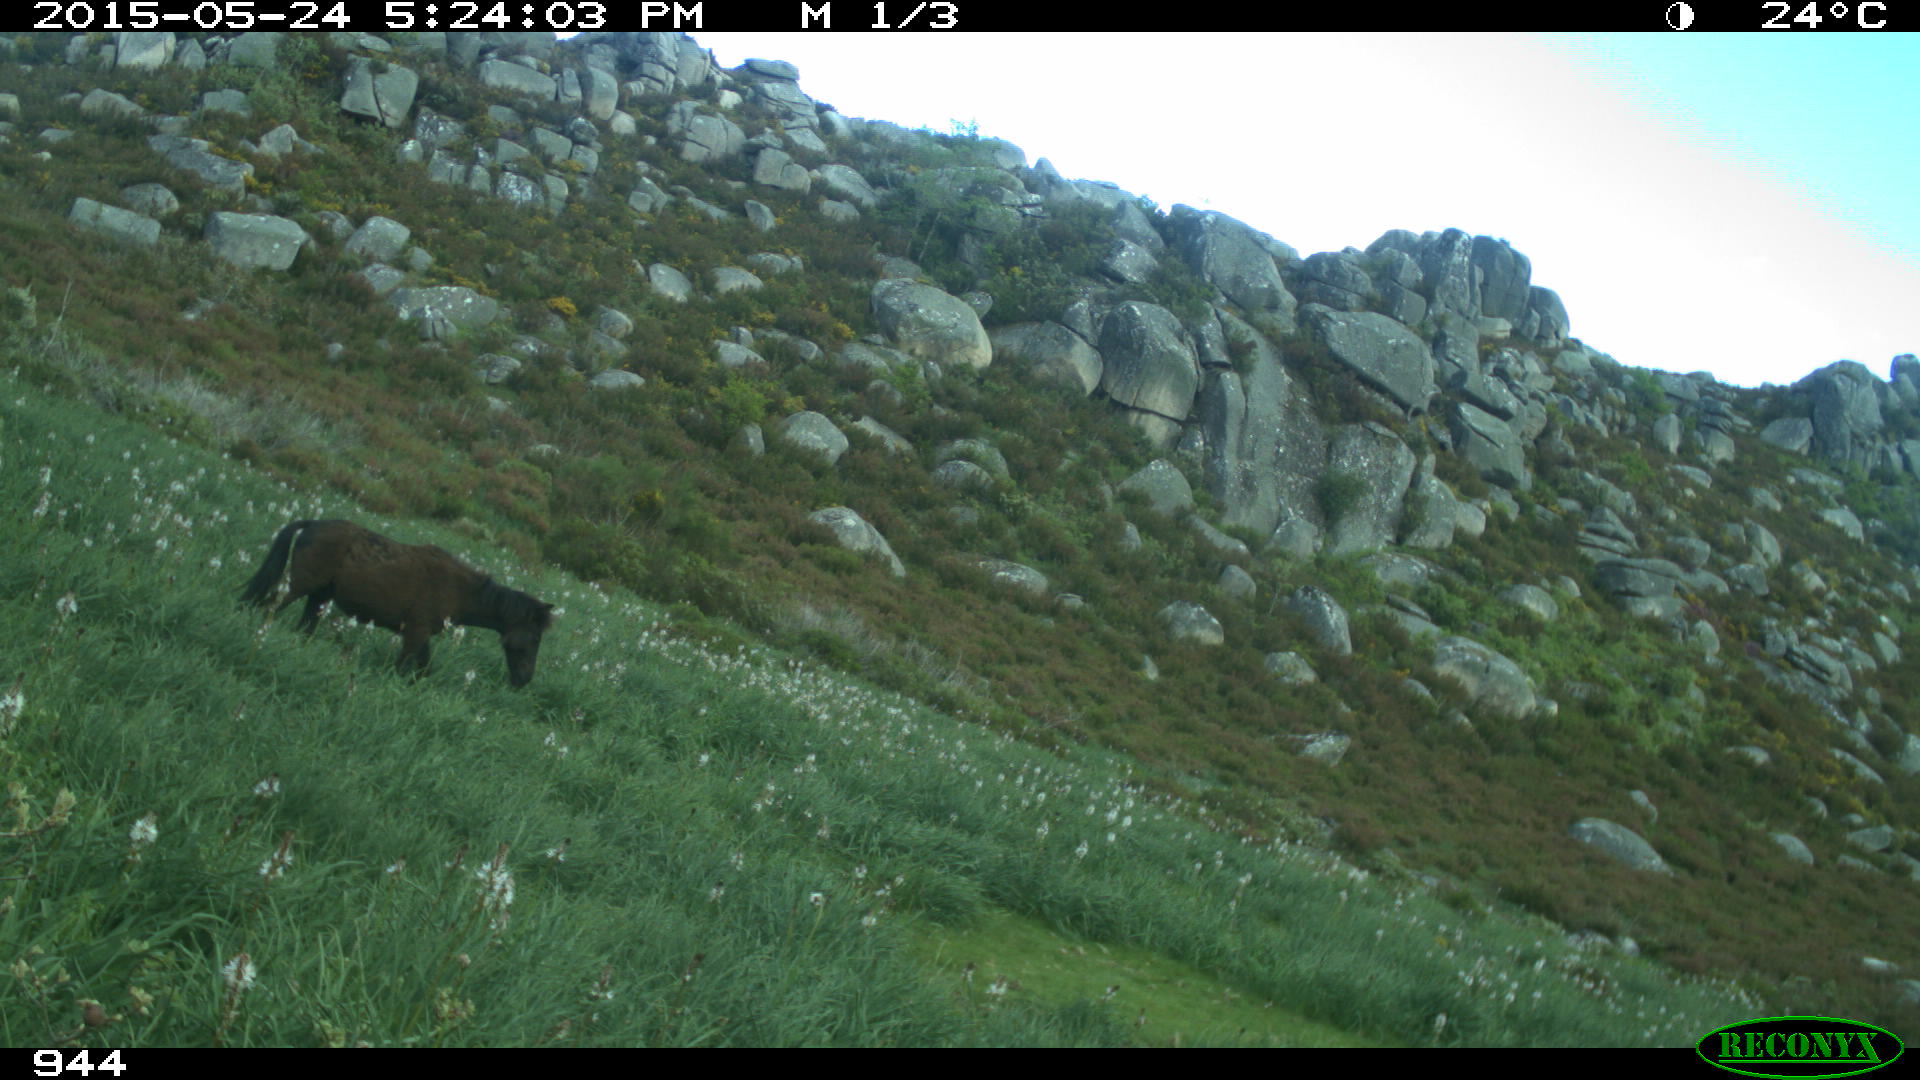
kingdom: Animalia
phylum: Chordata
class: Mammalia
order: Perissodactyla
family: Equidae
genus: Equus
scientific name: Equus caballus
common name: Horse
